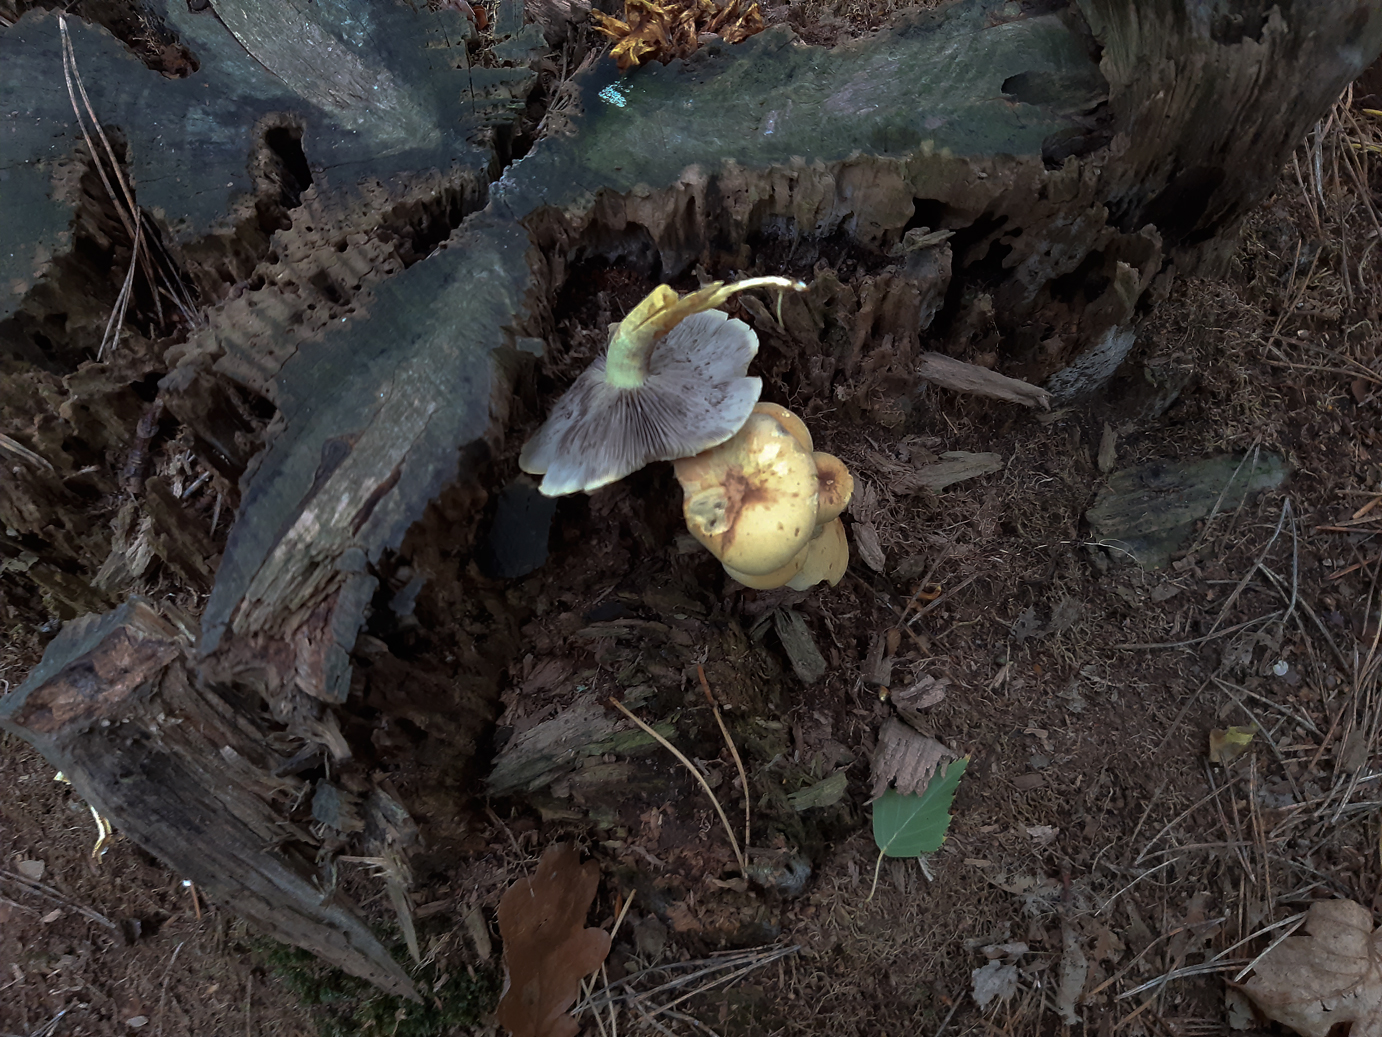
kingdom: Fungi
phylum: Basidiomycota
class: Agaricomycetes
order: Agaricales
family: Strophariaceae
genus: Hypholoma
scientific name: Hypholoma fasciculare
